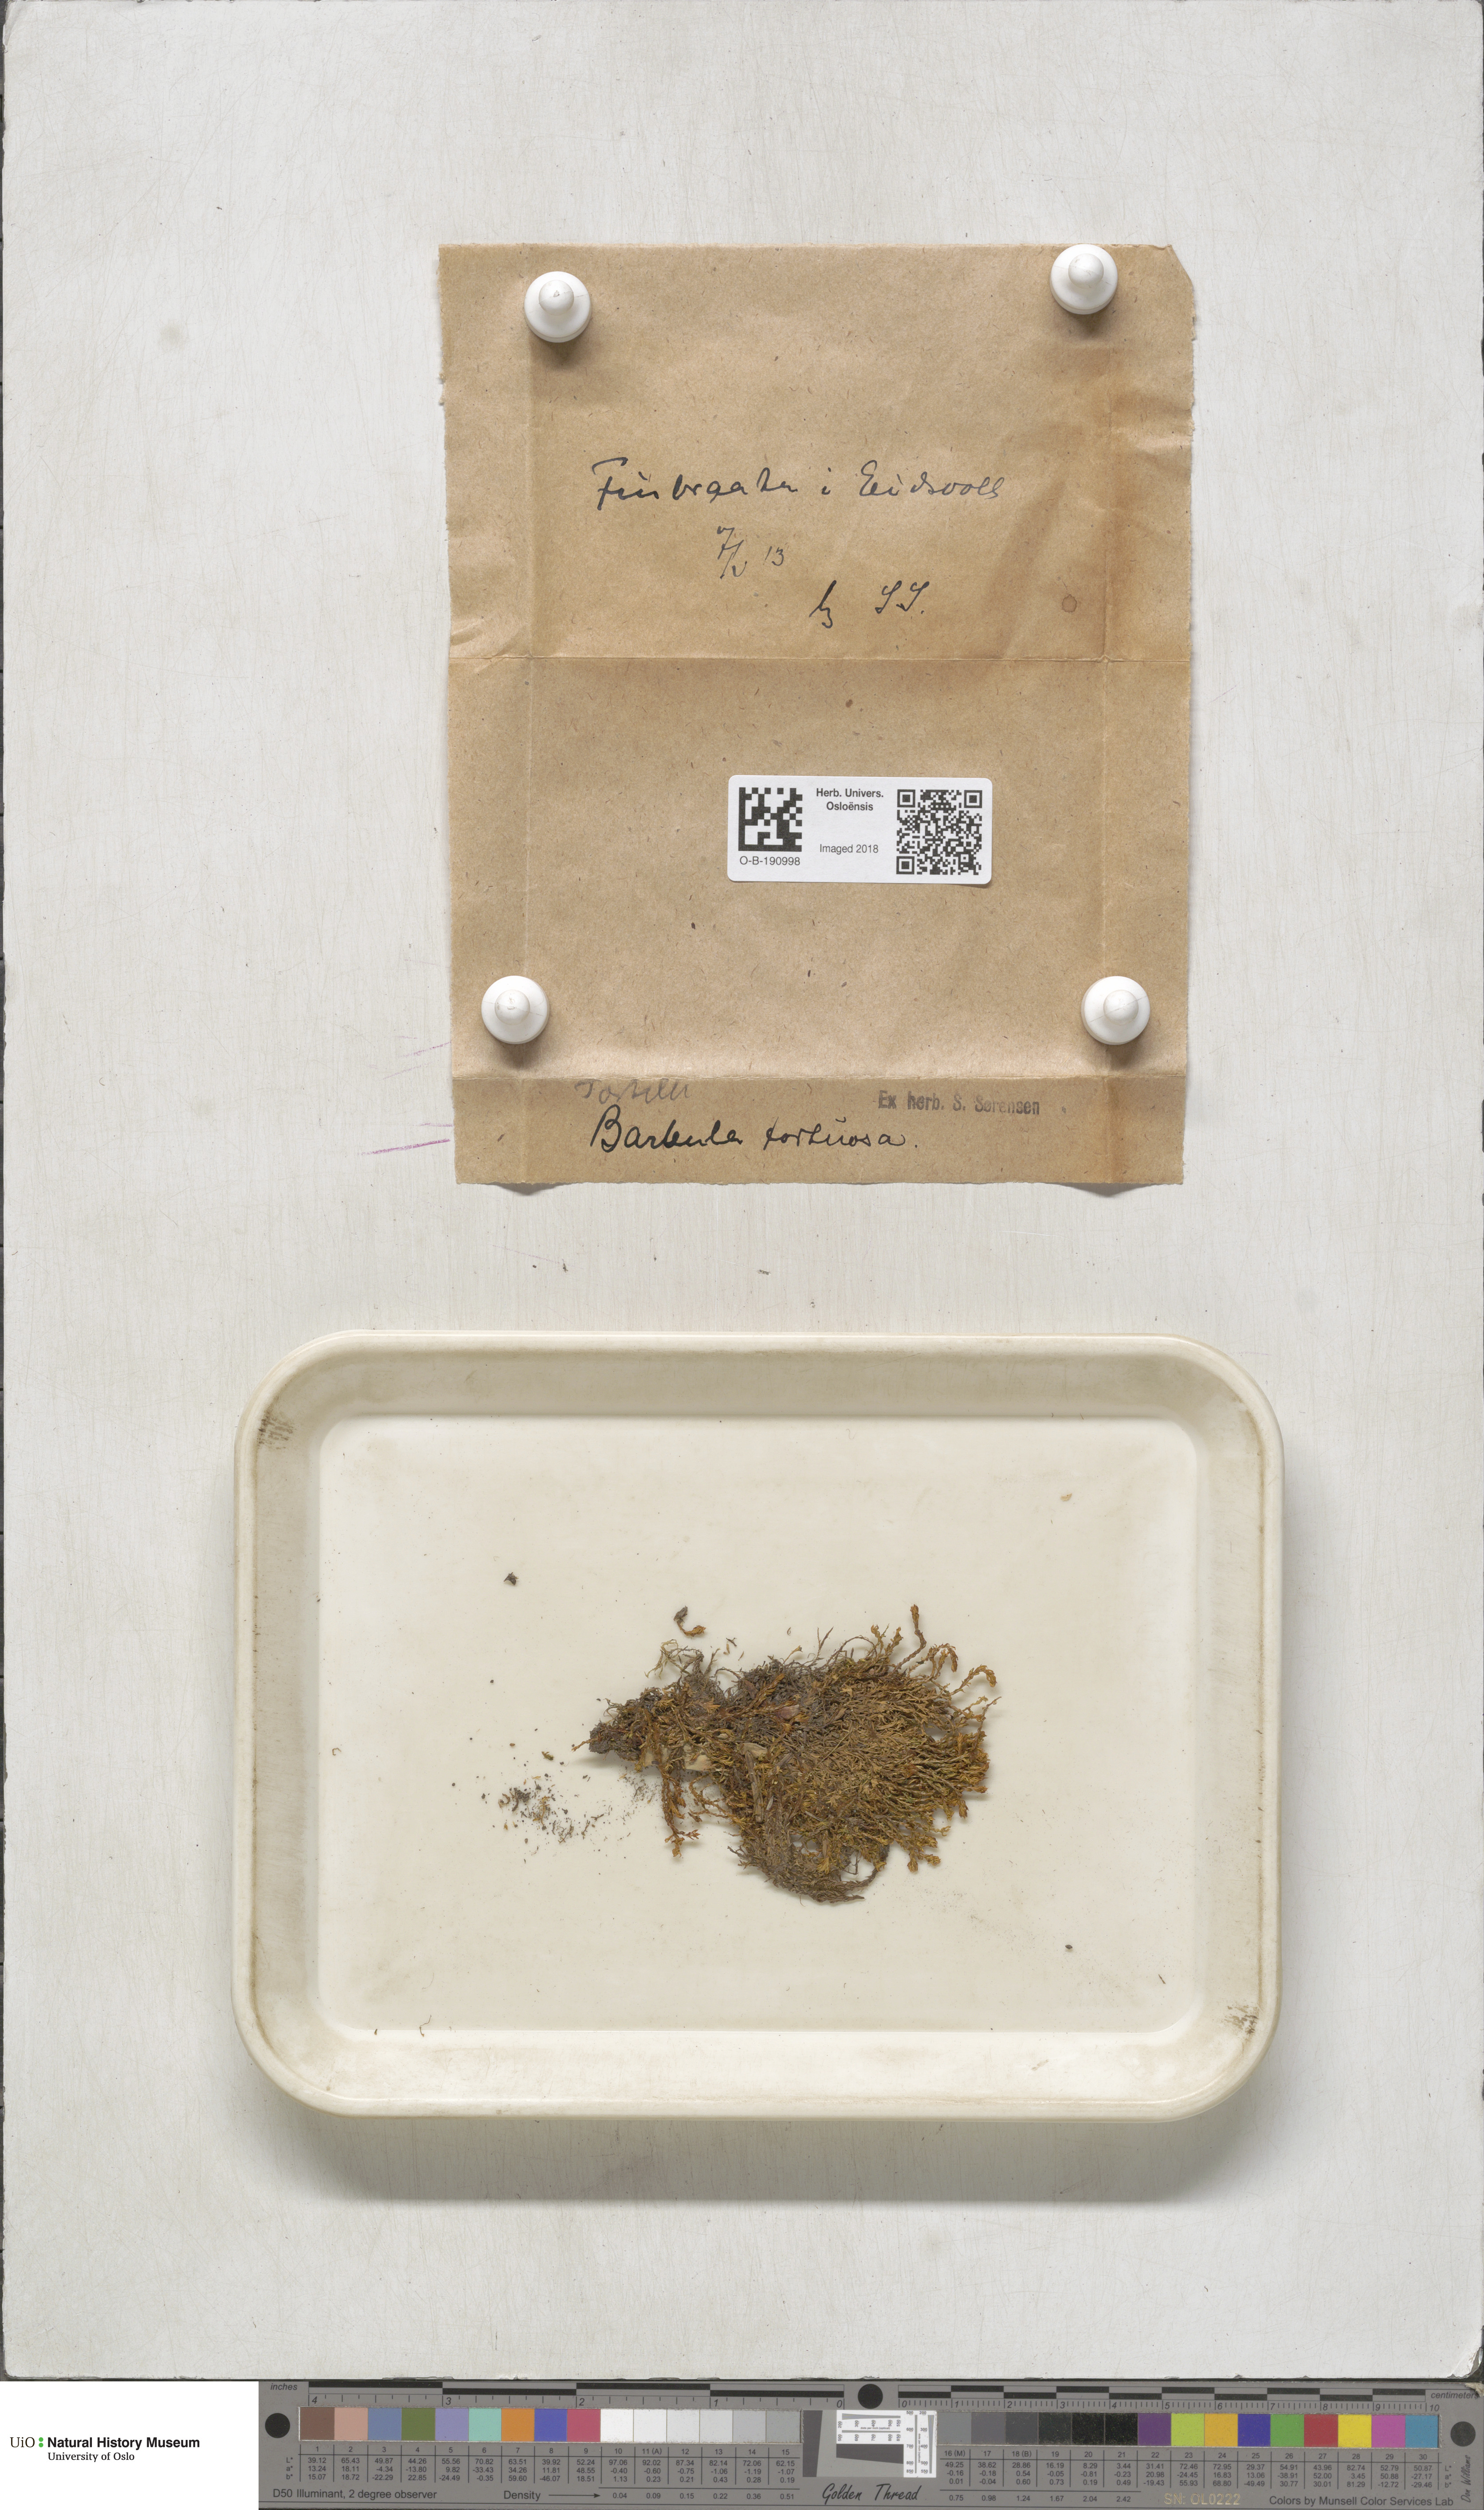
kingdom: Plantae
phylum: Bryophyta
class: Bryopsida
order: Pottiales
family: Pottiaceae
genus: Tortella
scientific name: Tortella tortuosa
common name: Frizzled crisp moss
